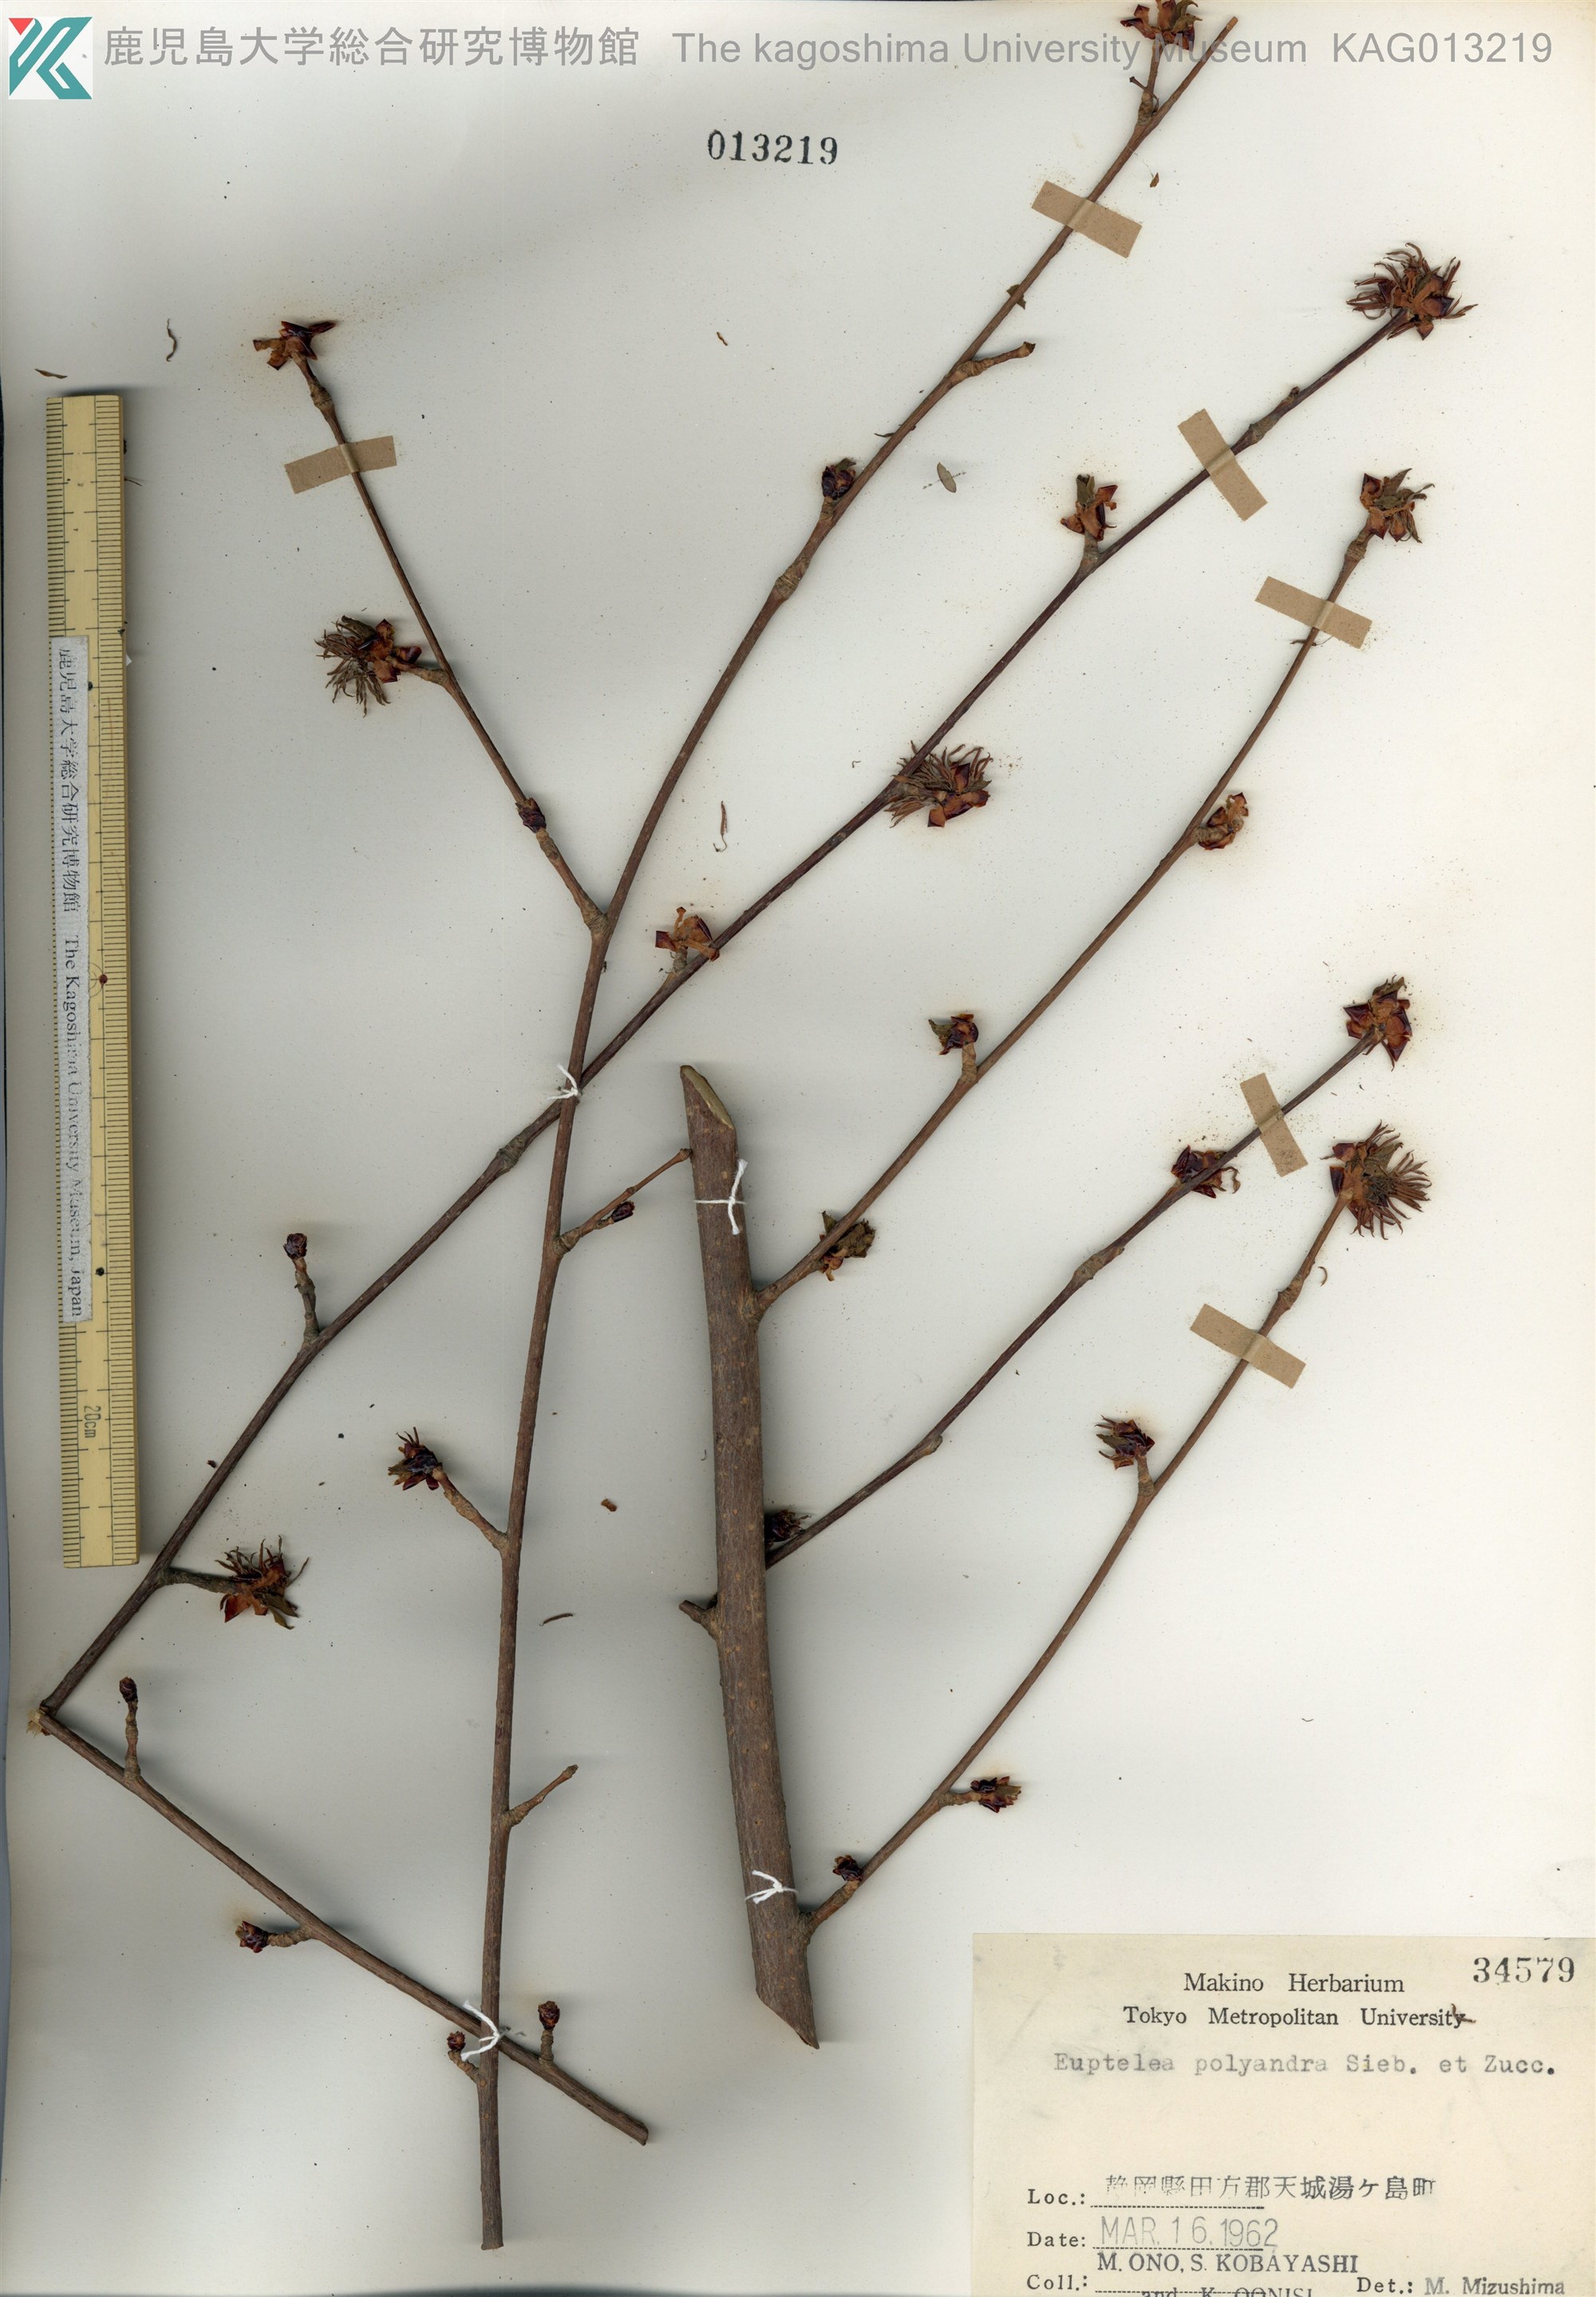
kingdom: Plantae
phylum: Tracheophyta
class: Magnoliopsida
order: Ranunculales
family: Eupteleaceae
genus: Euptelea
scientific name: Euptelea polyandra
